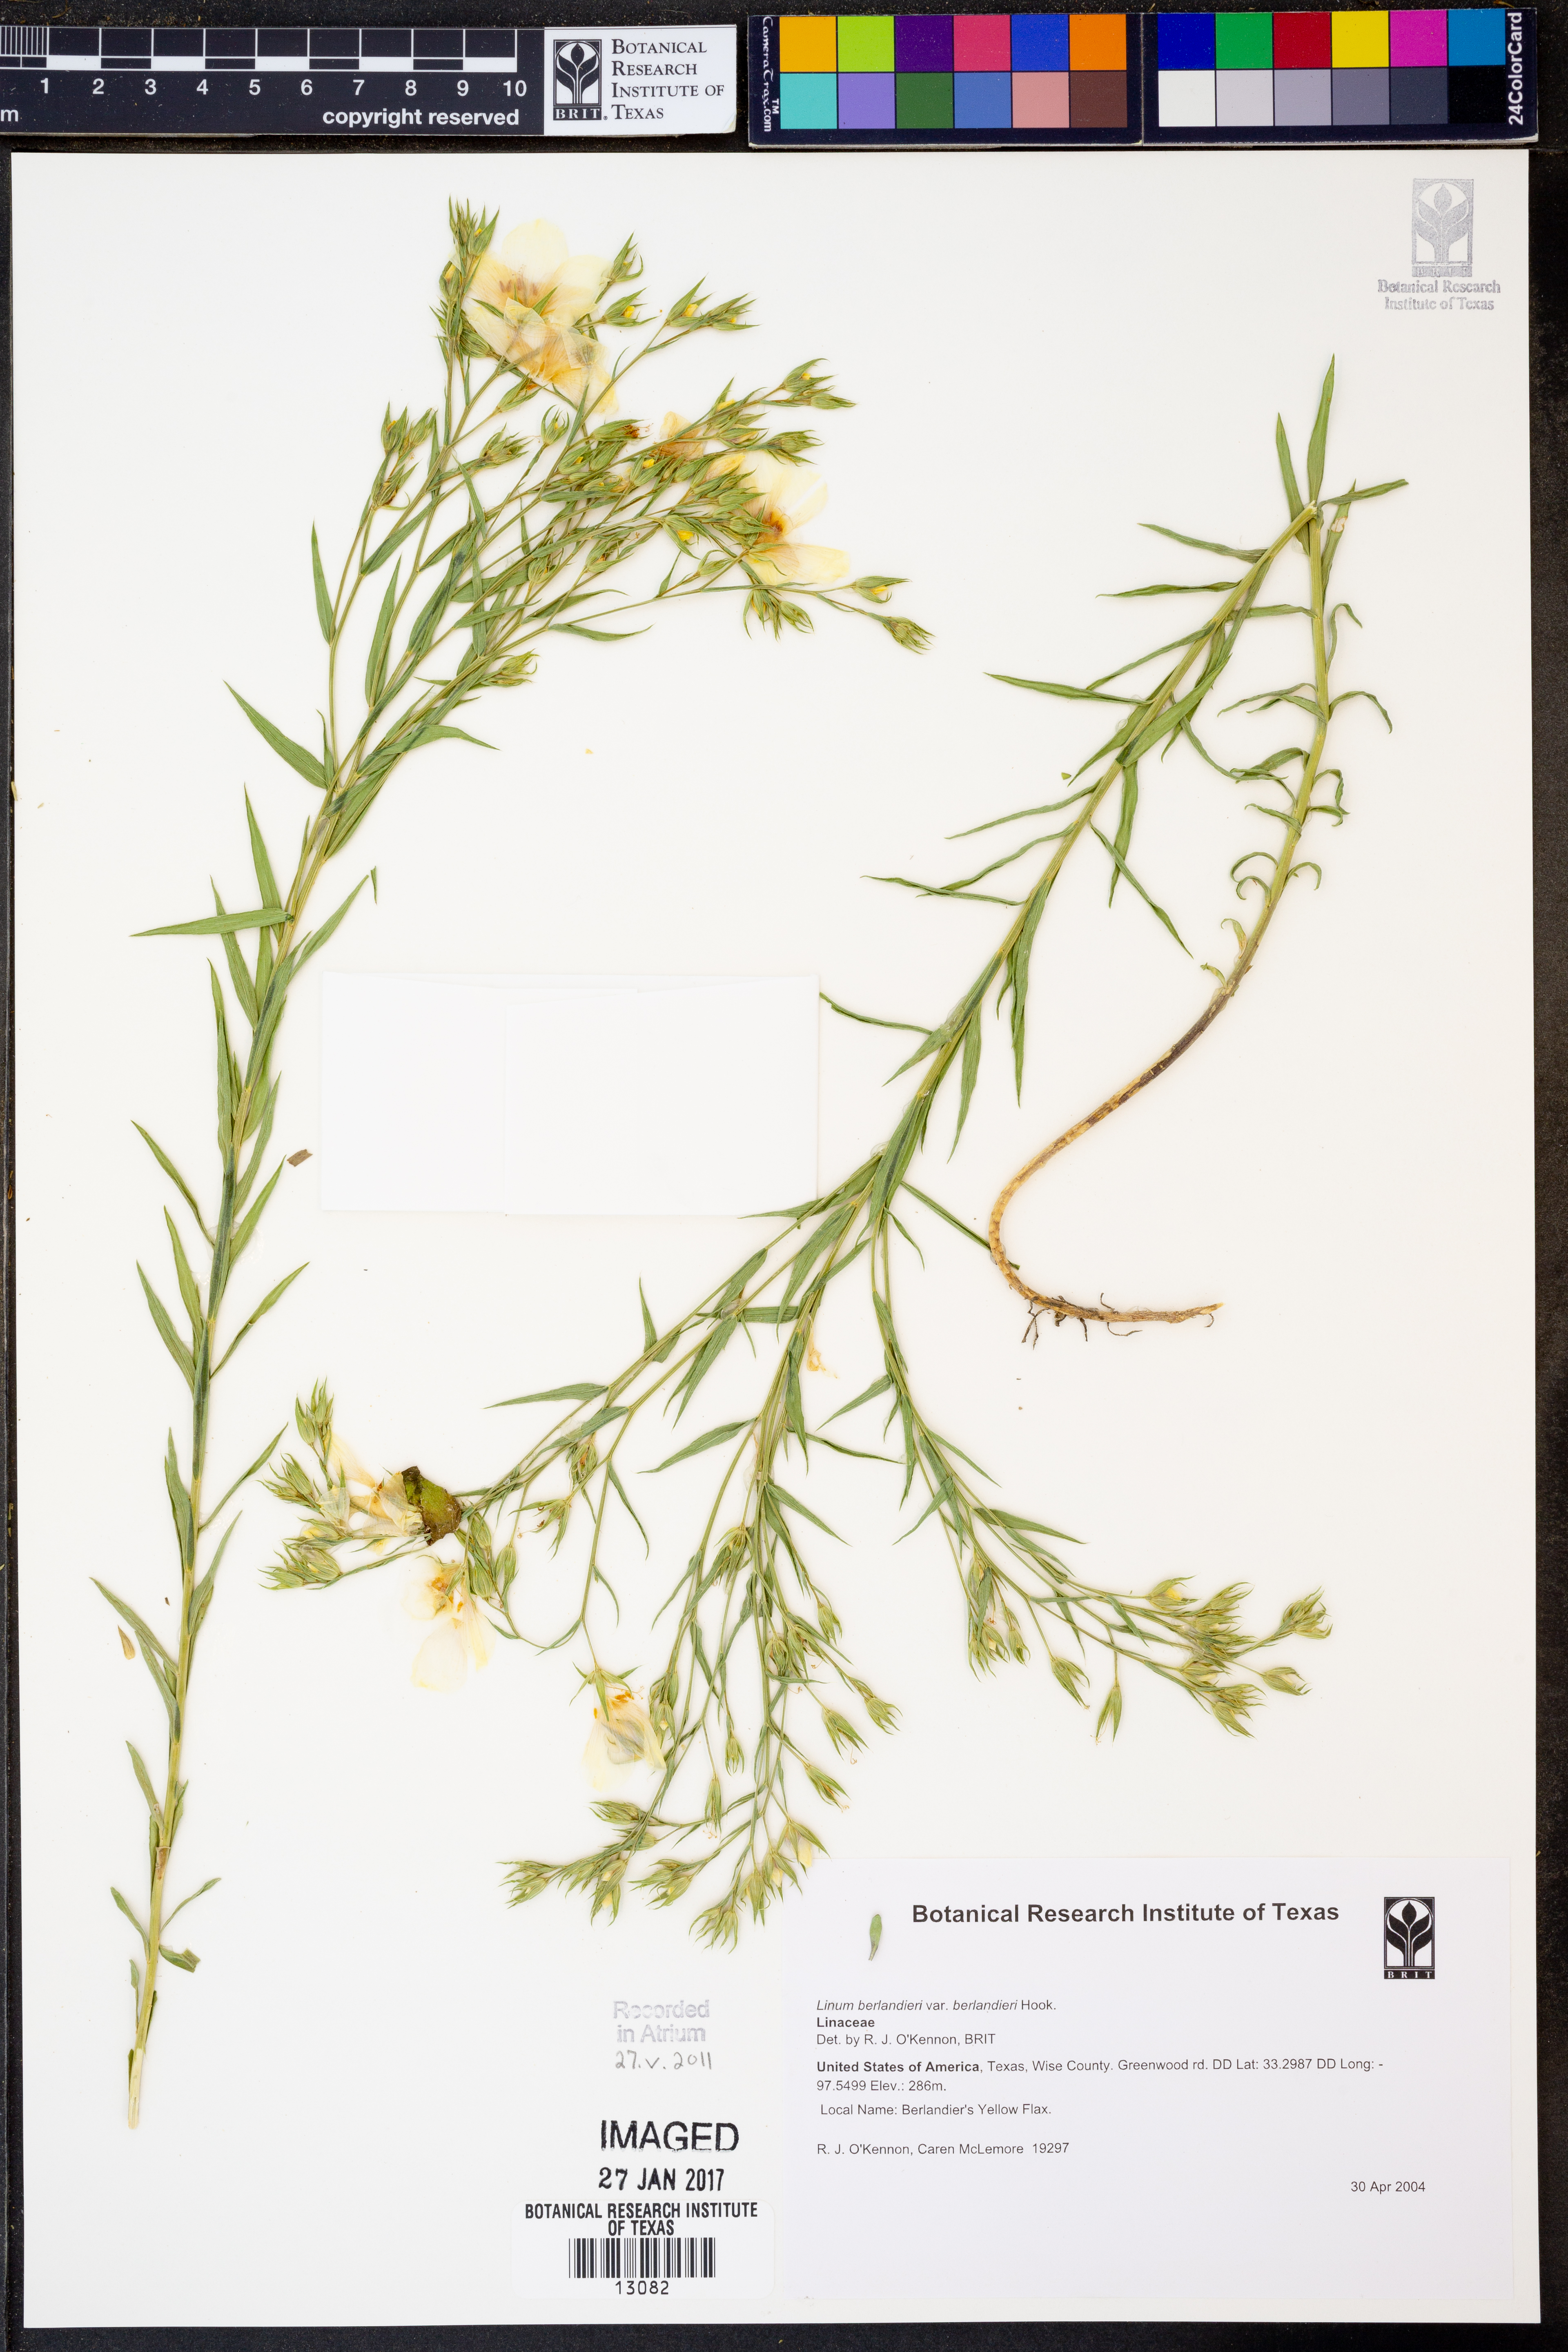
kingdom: Plantae
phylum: Tracheophyta
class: Magnoliopsida
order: Malpighiales
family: Linaceae
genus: Linum
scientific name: Linum berlandieri
